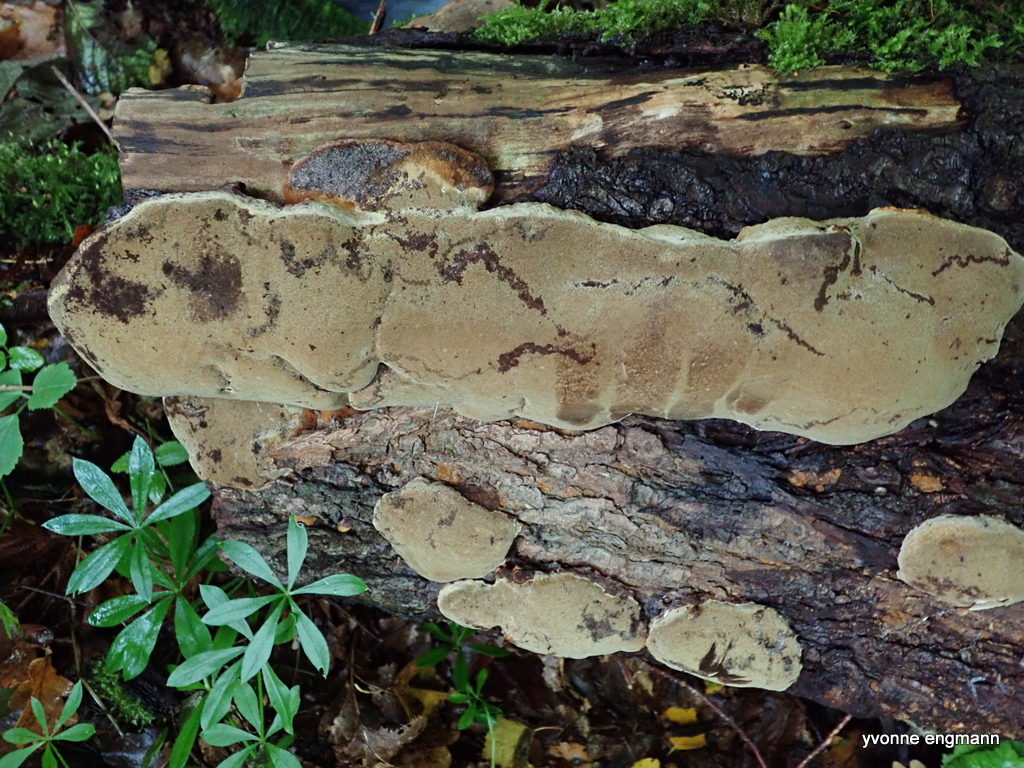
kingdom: Fungi
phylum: Basidiomycota
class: Agaricomycetes
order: Hymenochaetales
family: Hymenochaetaceae
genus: Phellinus
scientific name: Phellinus
